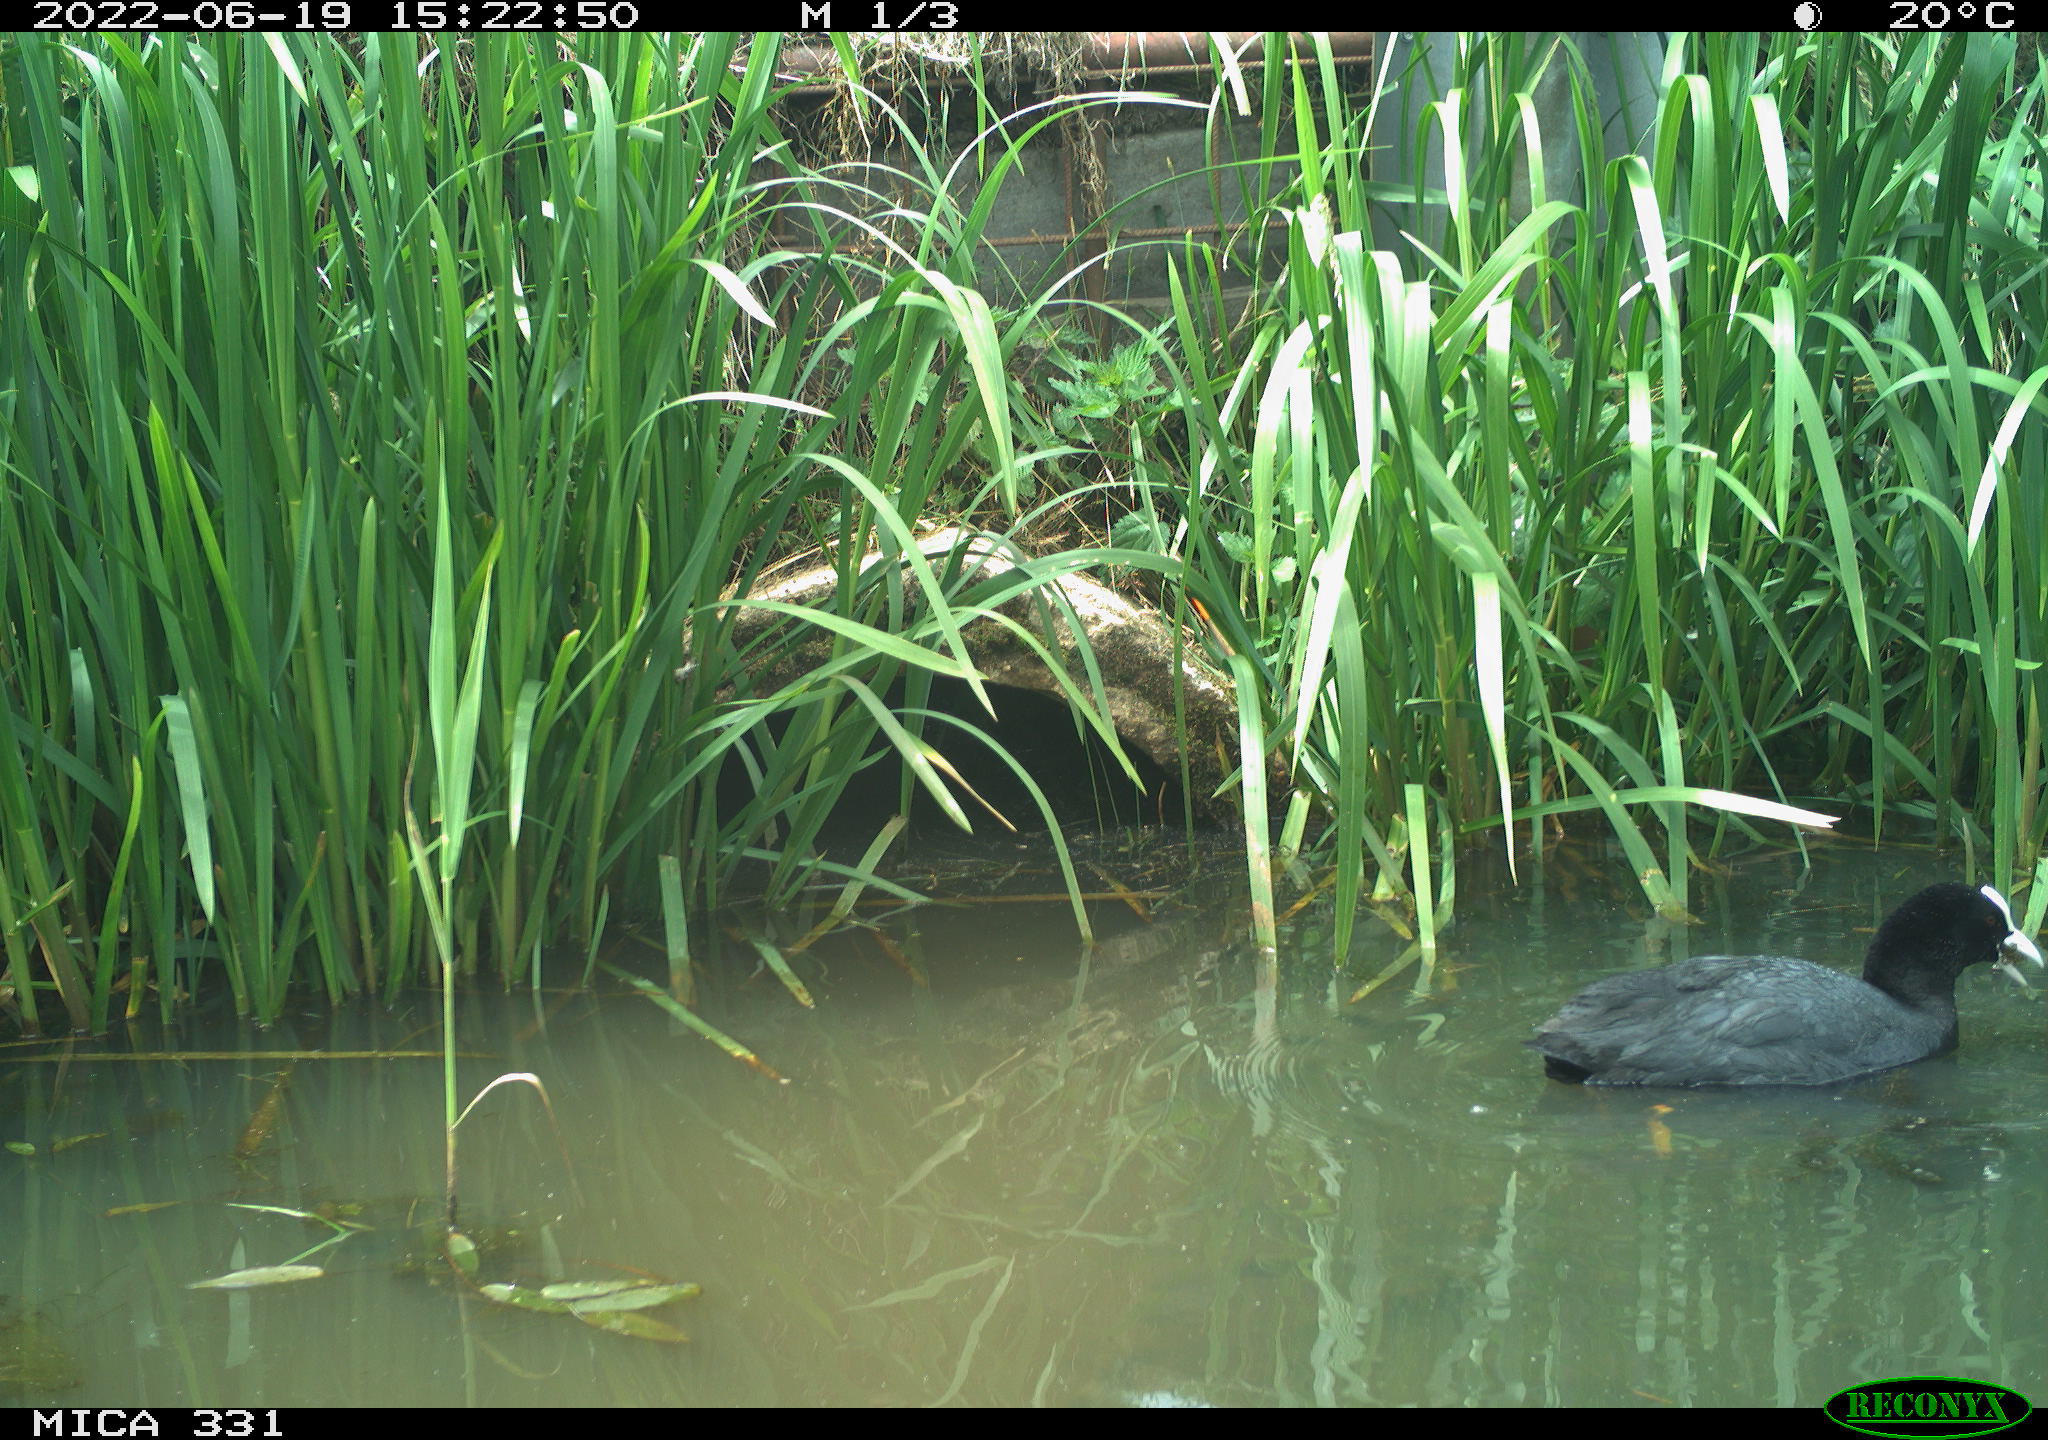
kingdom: Animalia
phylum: Chordata
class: Aves
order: Gruiformes
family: Rallidae
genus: Fulica
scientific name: Fulica atra
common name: Eurasian coot
